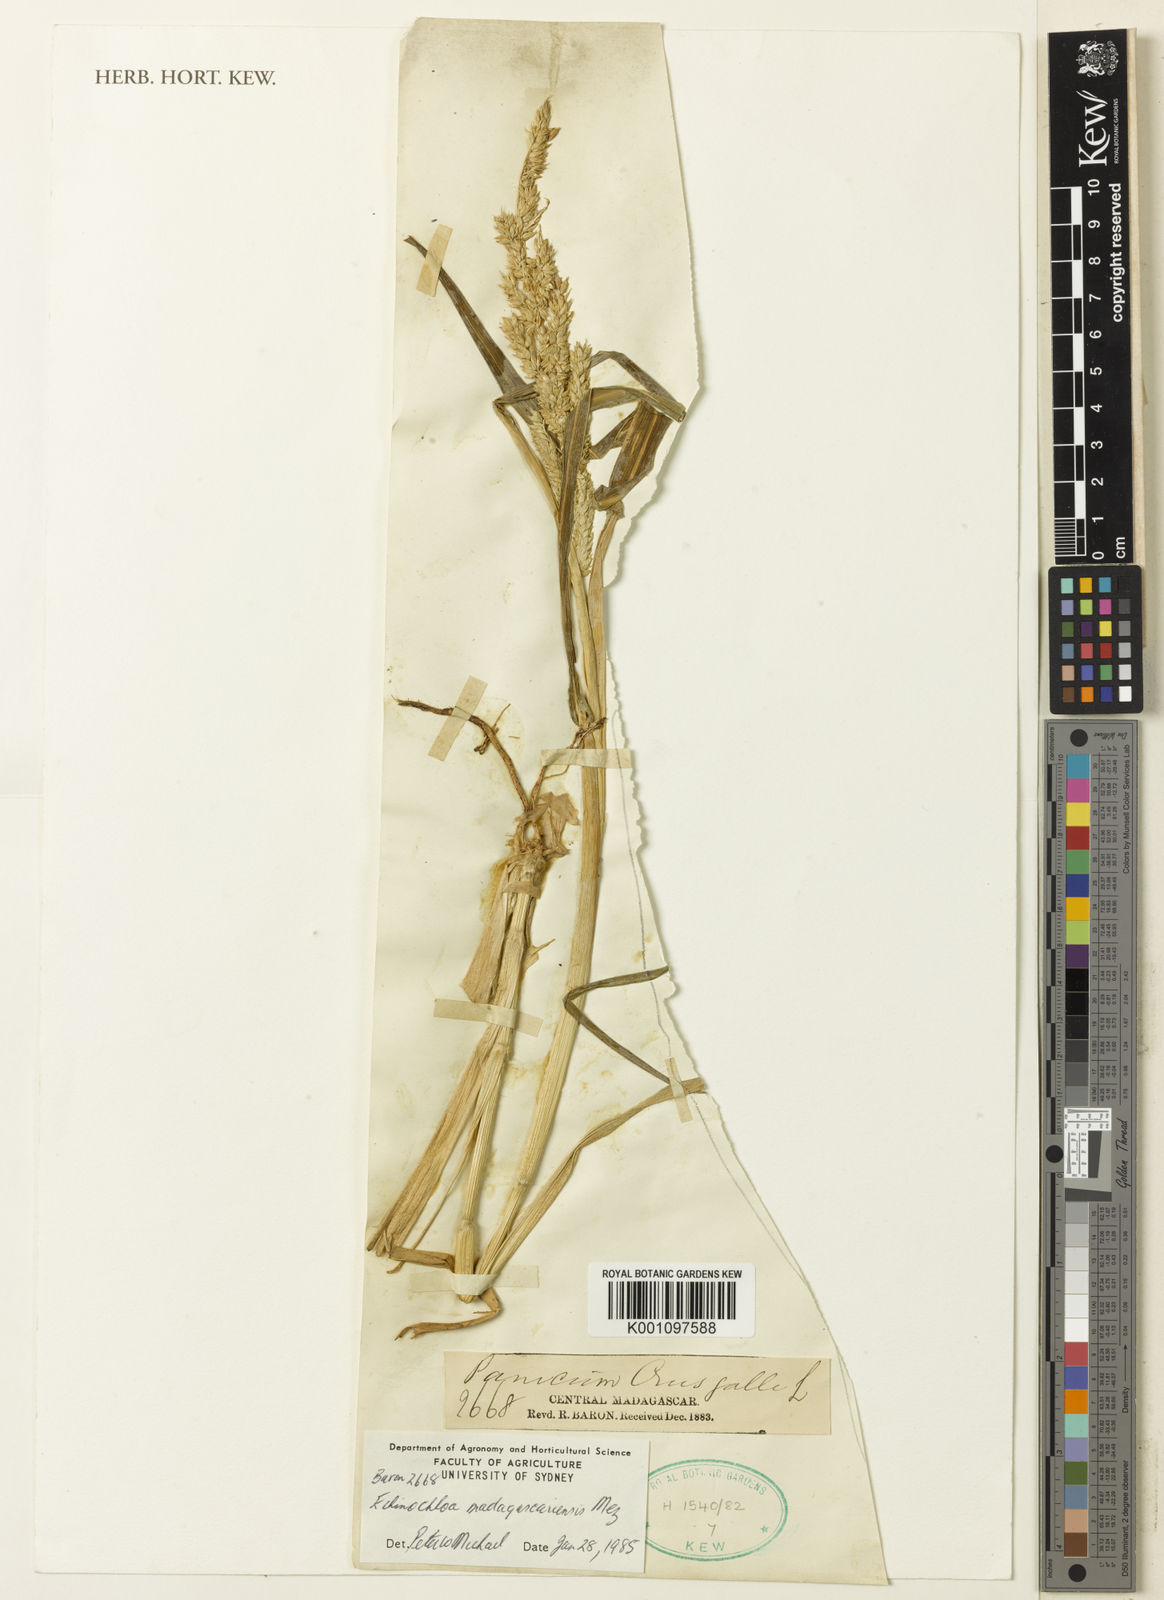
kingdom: Plantae
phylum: Tracheophyta
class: Liliopsida
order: Poales
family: Poaceae
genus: Echinochloa
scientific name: Echinochloa crus-galli
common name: Cockspur
